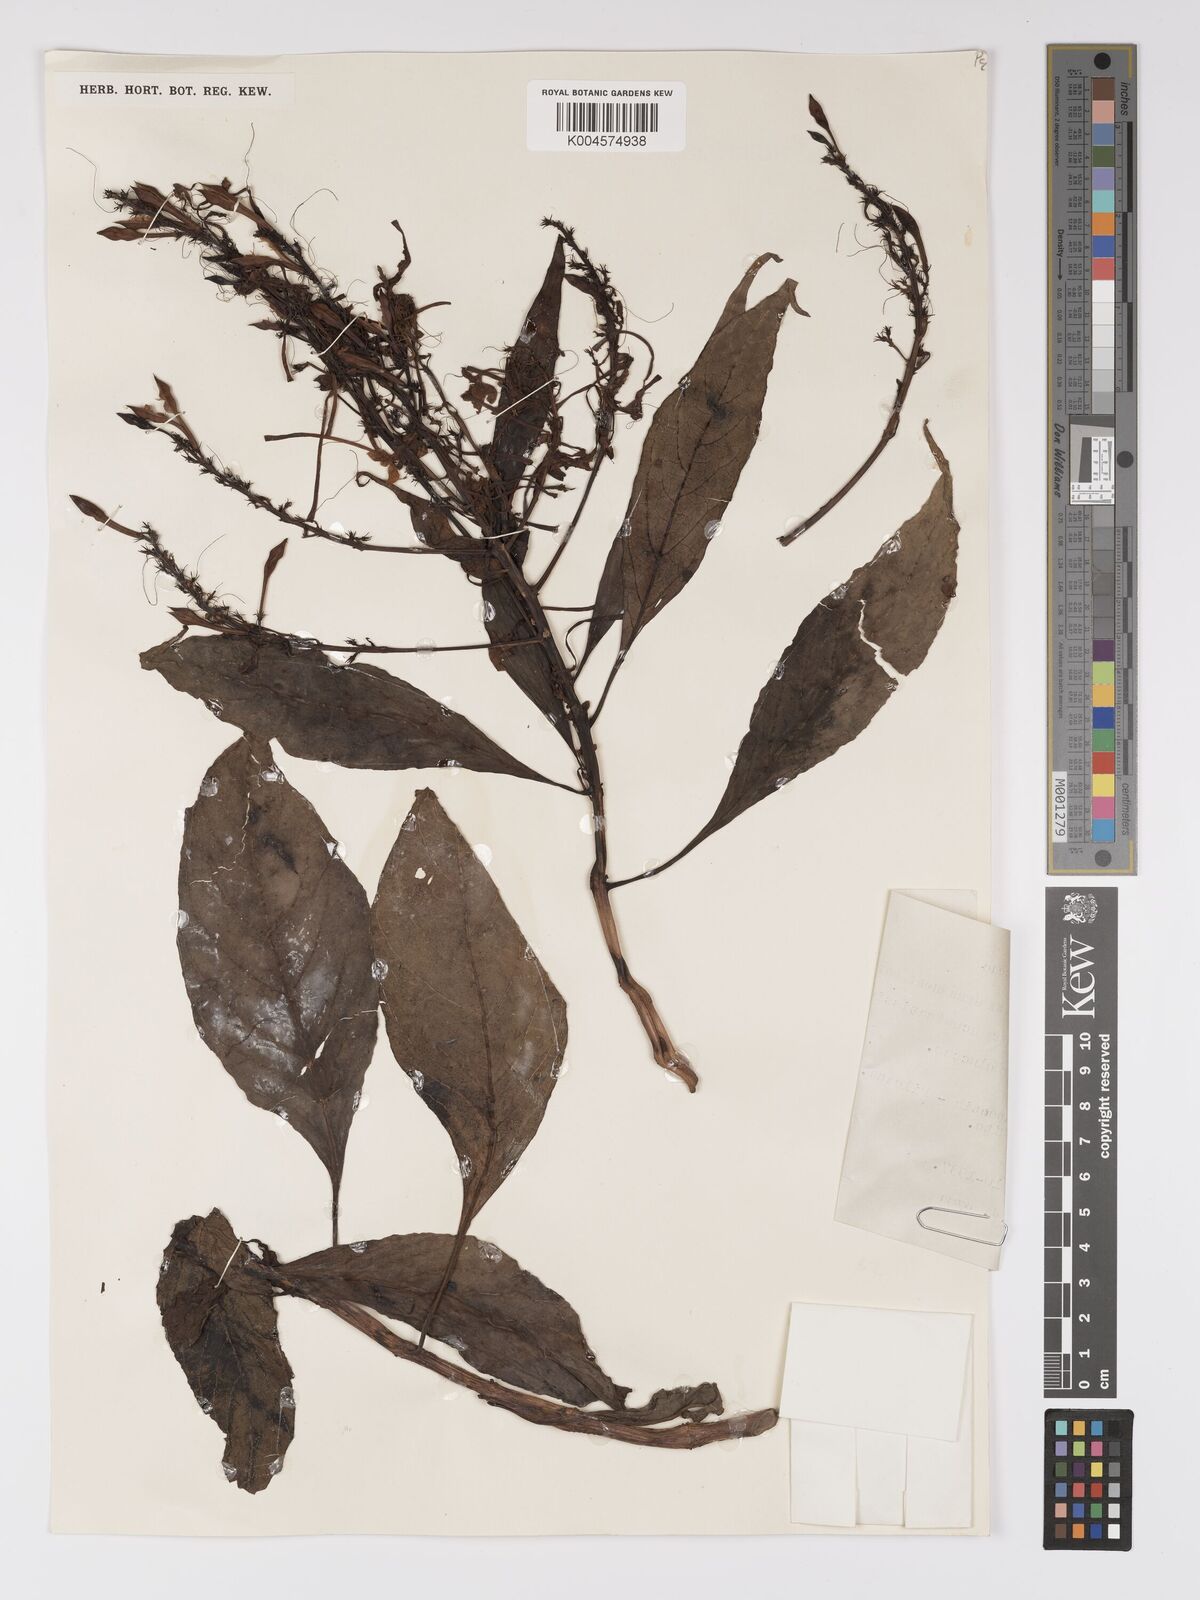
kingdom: Plantae
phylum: Tracheophyta
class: Magnoliopsida
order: Lamiales
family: Acanthaceae
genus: Pseuderanthemum
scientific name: Pseuderanthemum acuminatissimum
